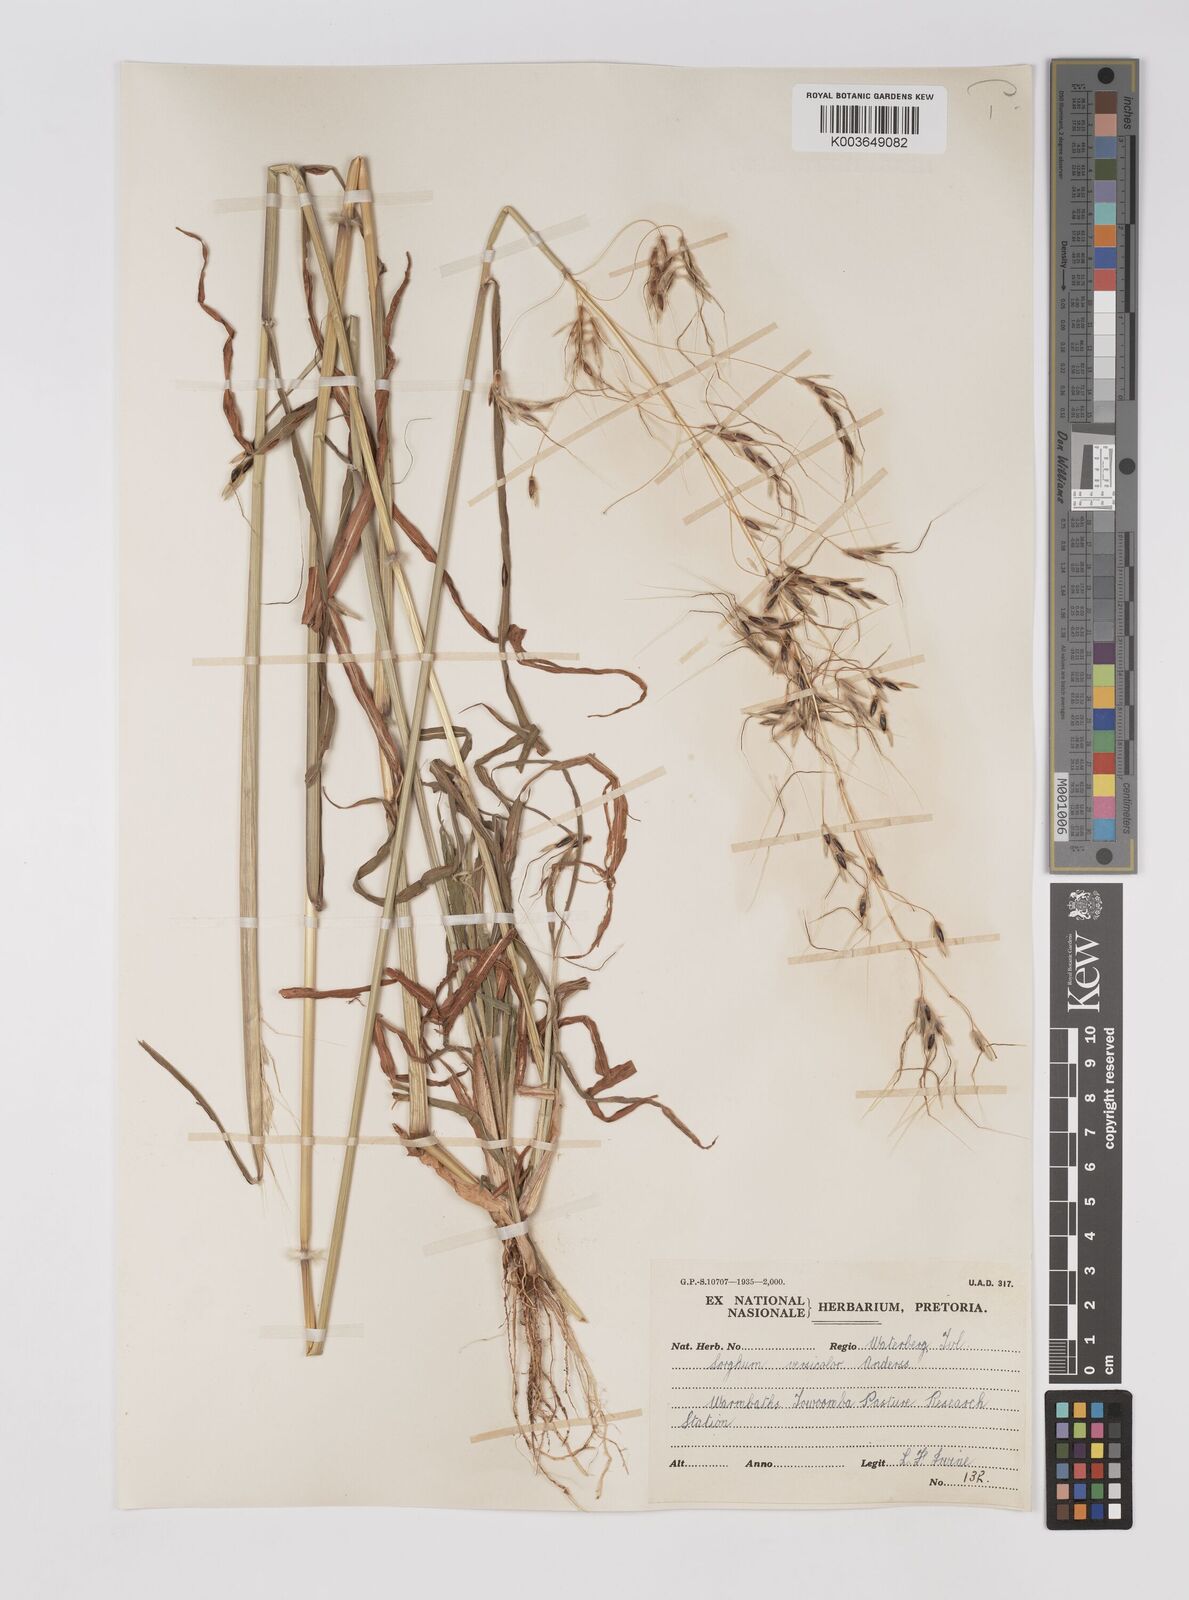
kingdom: Plantae
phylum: Tracheophyta
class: Liliopsida
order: Poales
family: Poaceae
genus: Sarga
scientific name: Sarga versicolor
